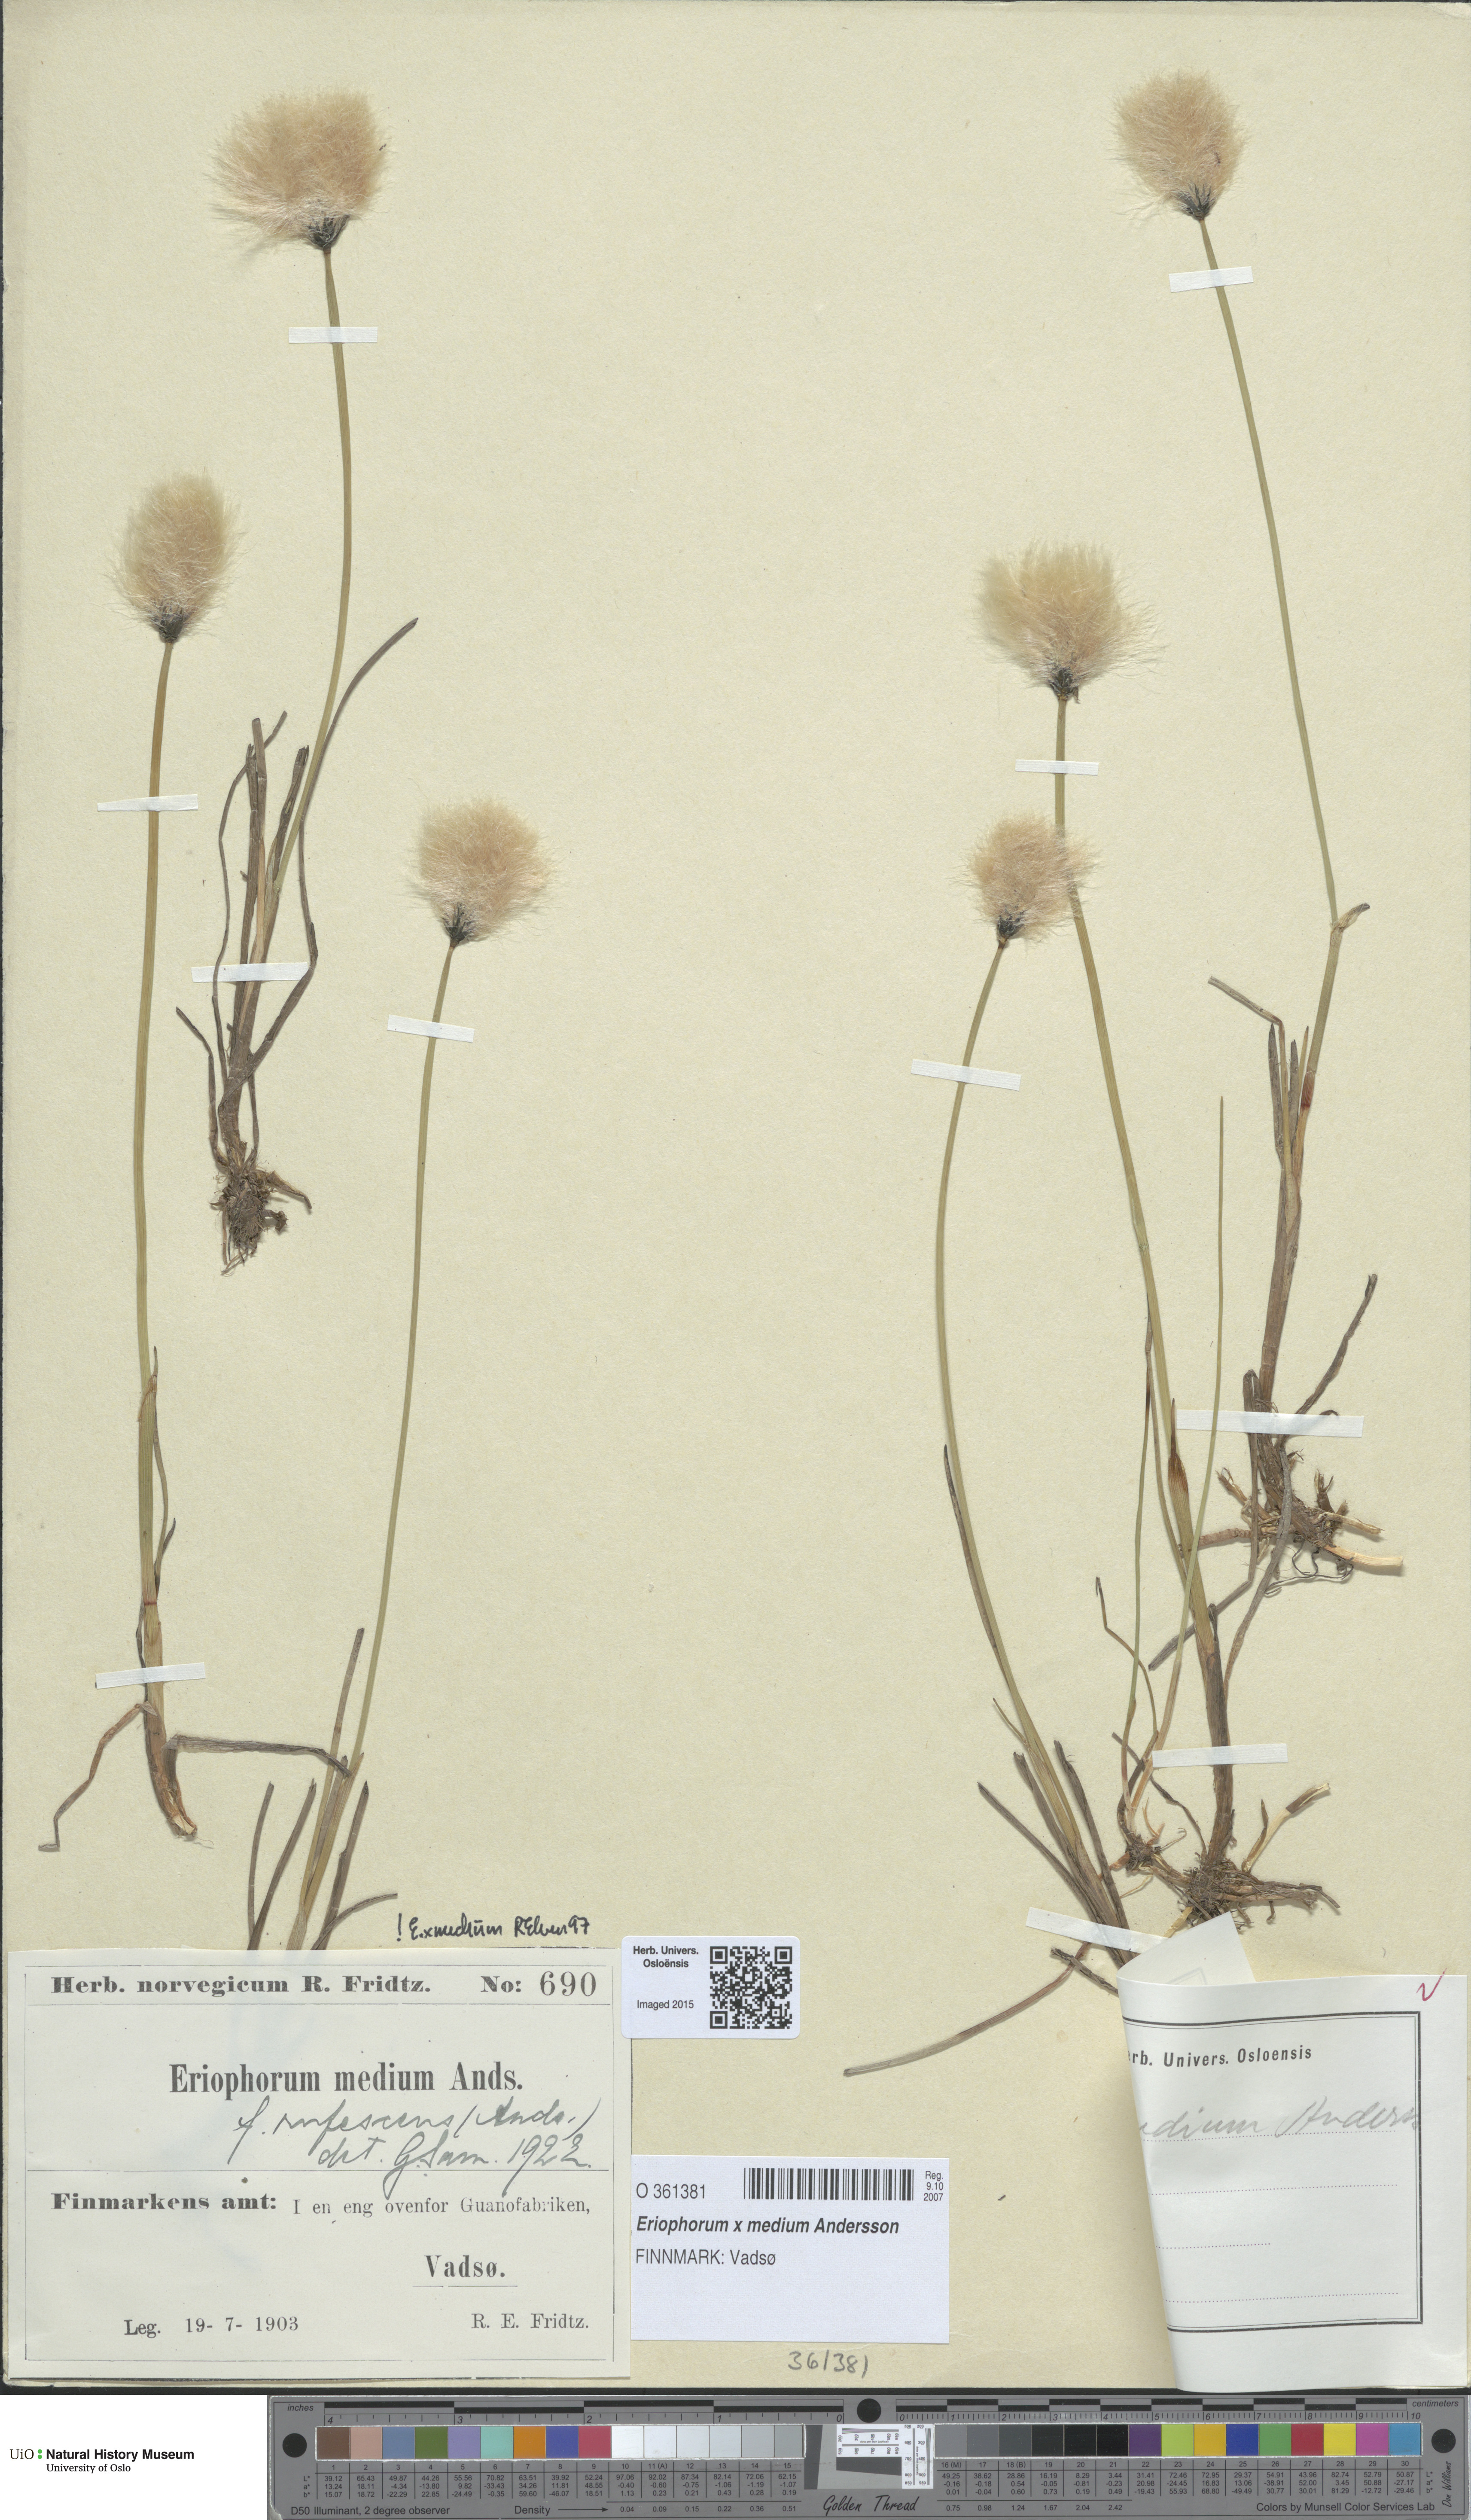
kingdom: Plantae
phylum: Tracheophyta
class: Liliopsida
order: Poales
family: Cyperaceae
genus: Eriophorum
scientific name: Eriophorum medium
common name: Intermediate cottongrass
